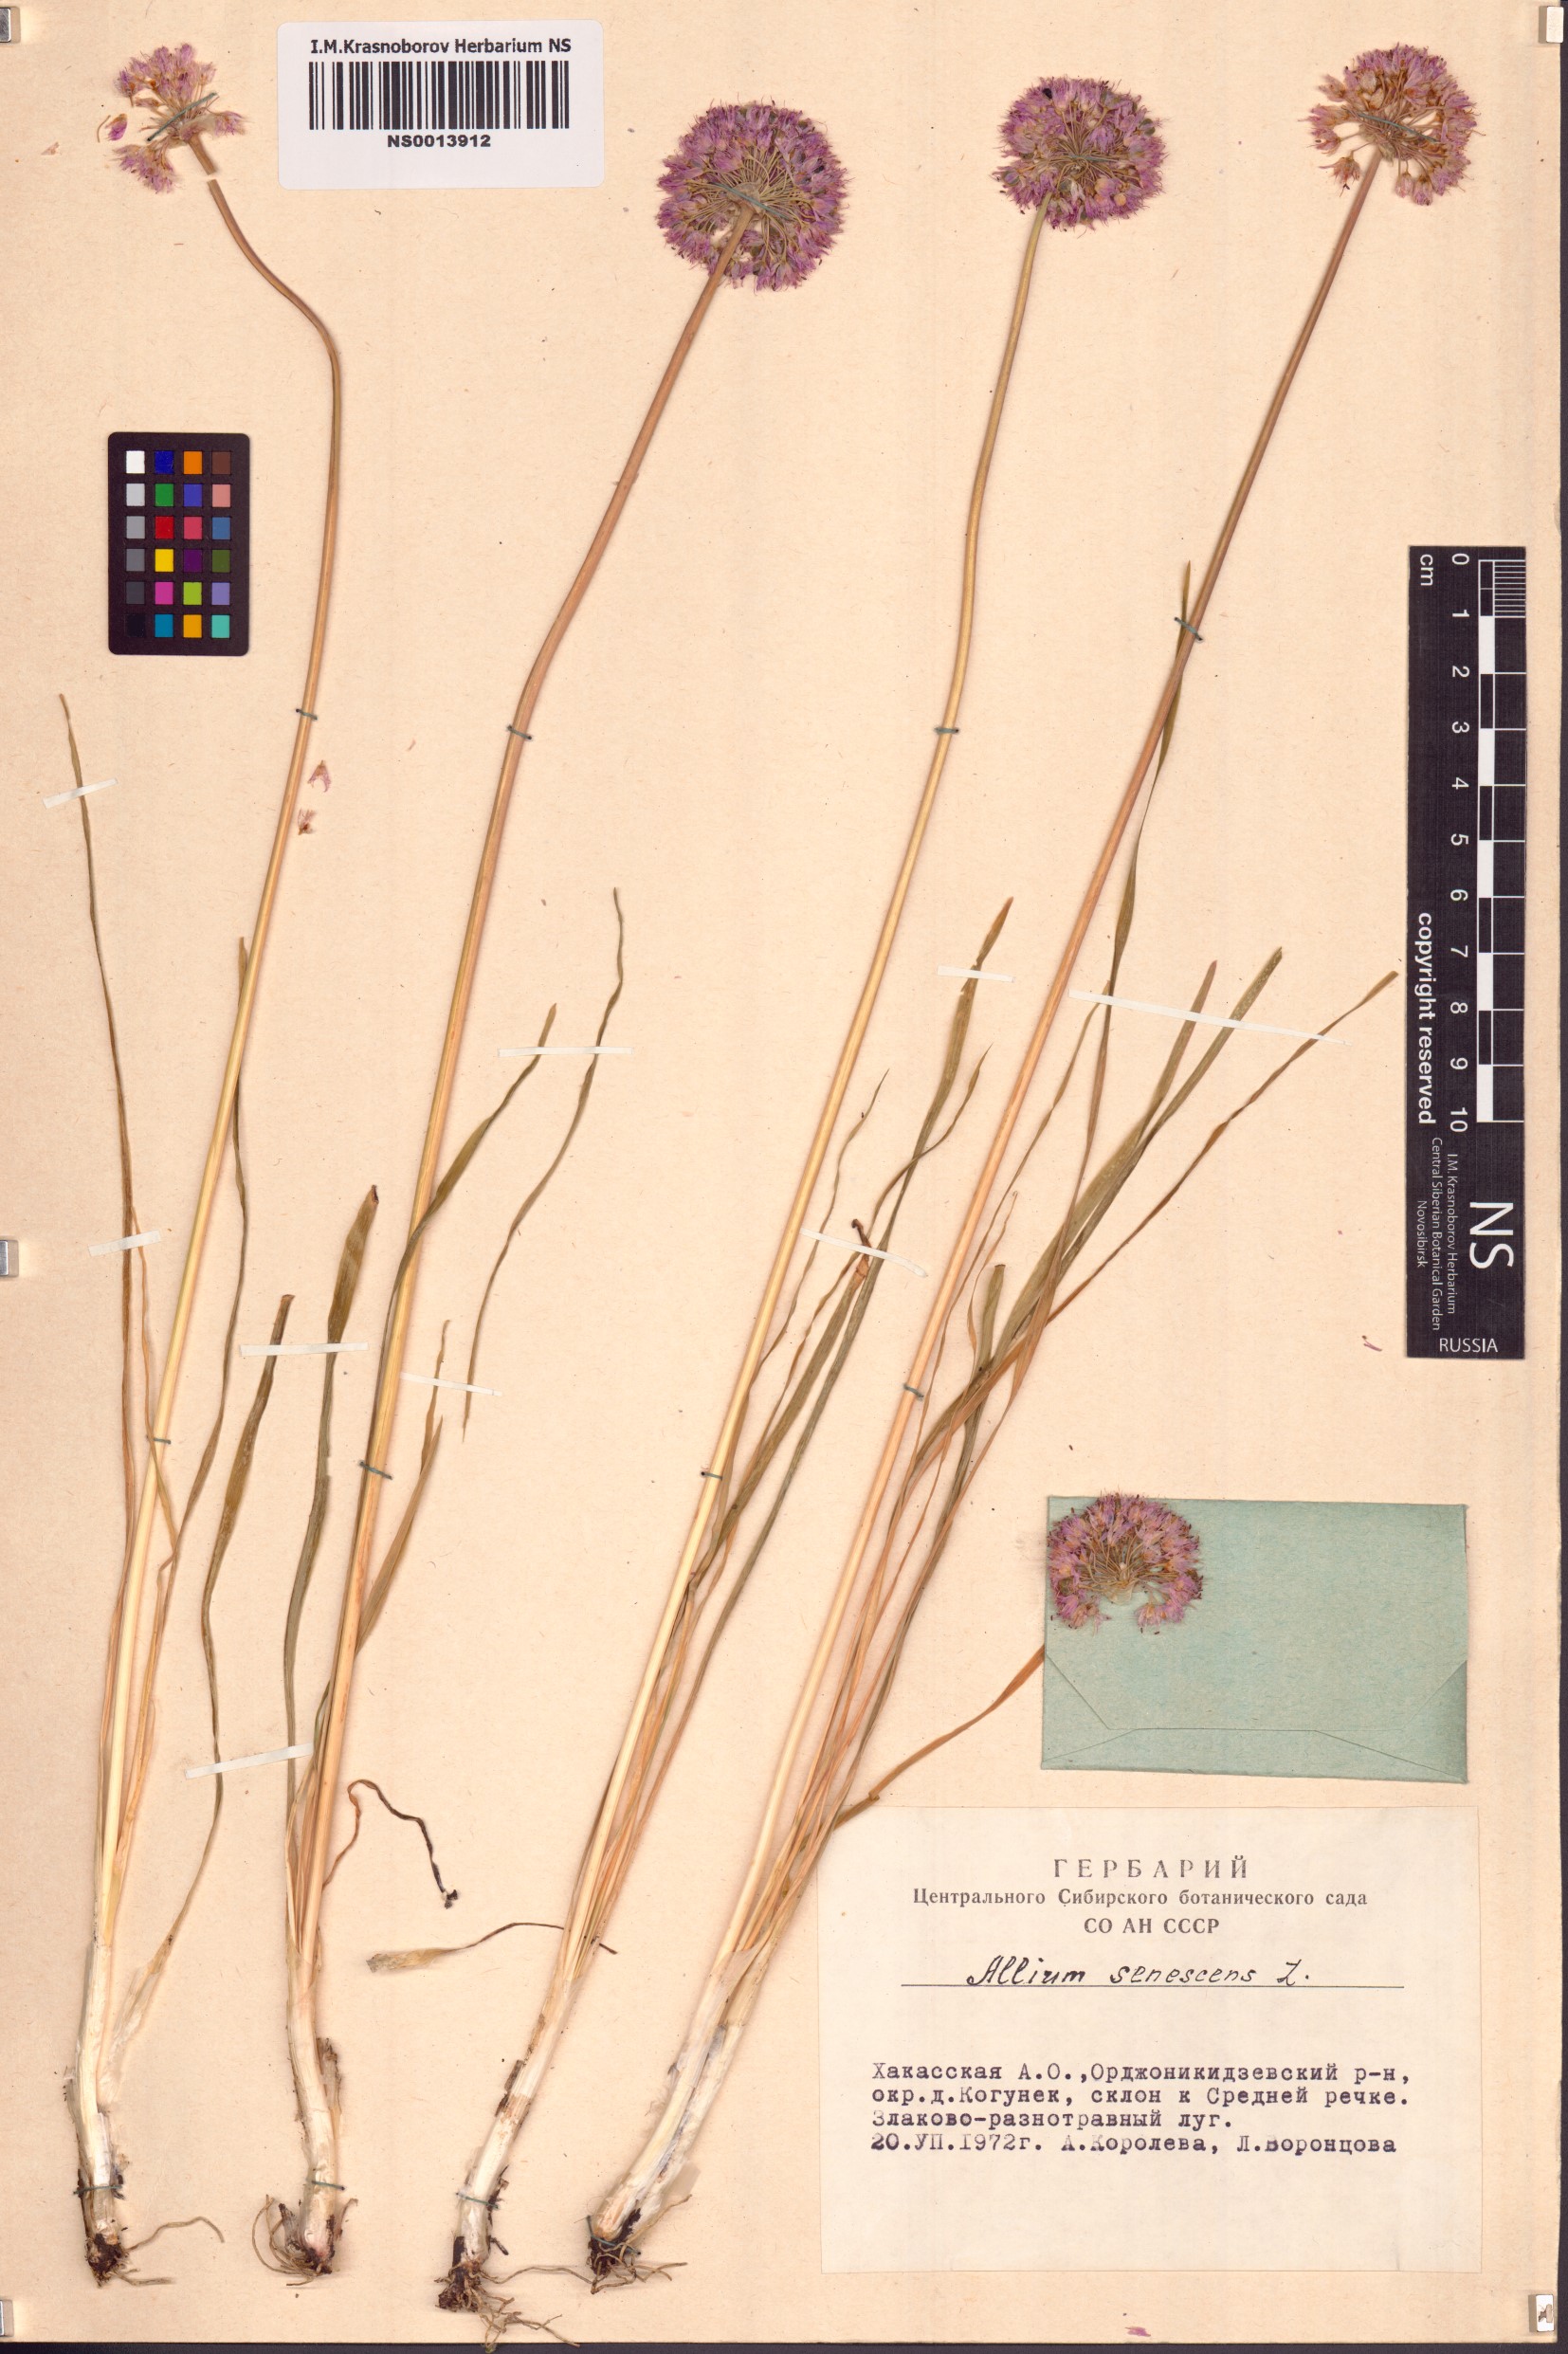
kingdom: Plantae
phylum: Tracheophyta
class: Liliopsida
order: Asparagales
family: Amaryllidaceae
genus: Allium
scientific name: Allium senescens
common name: German garlic
